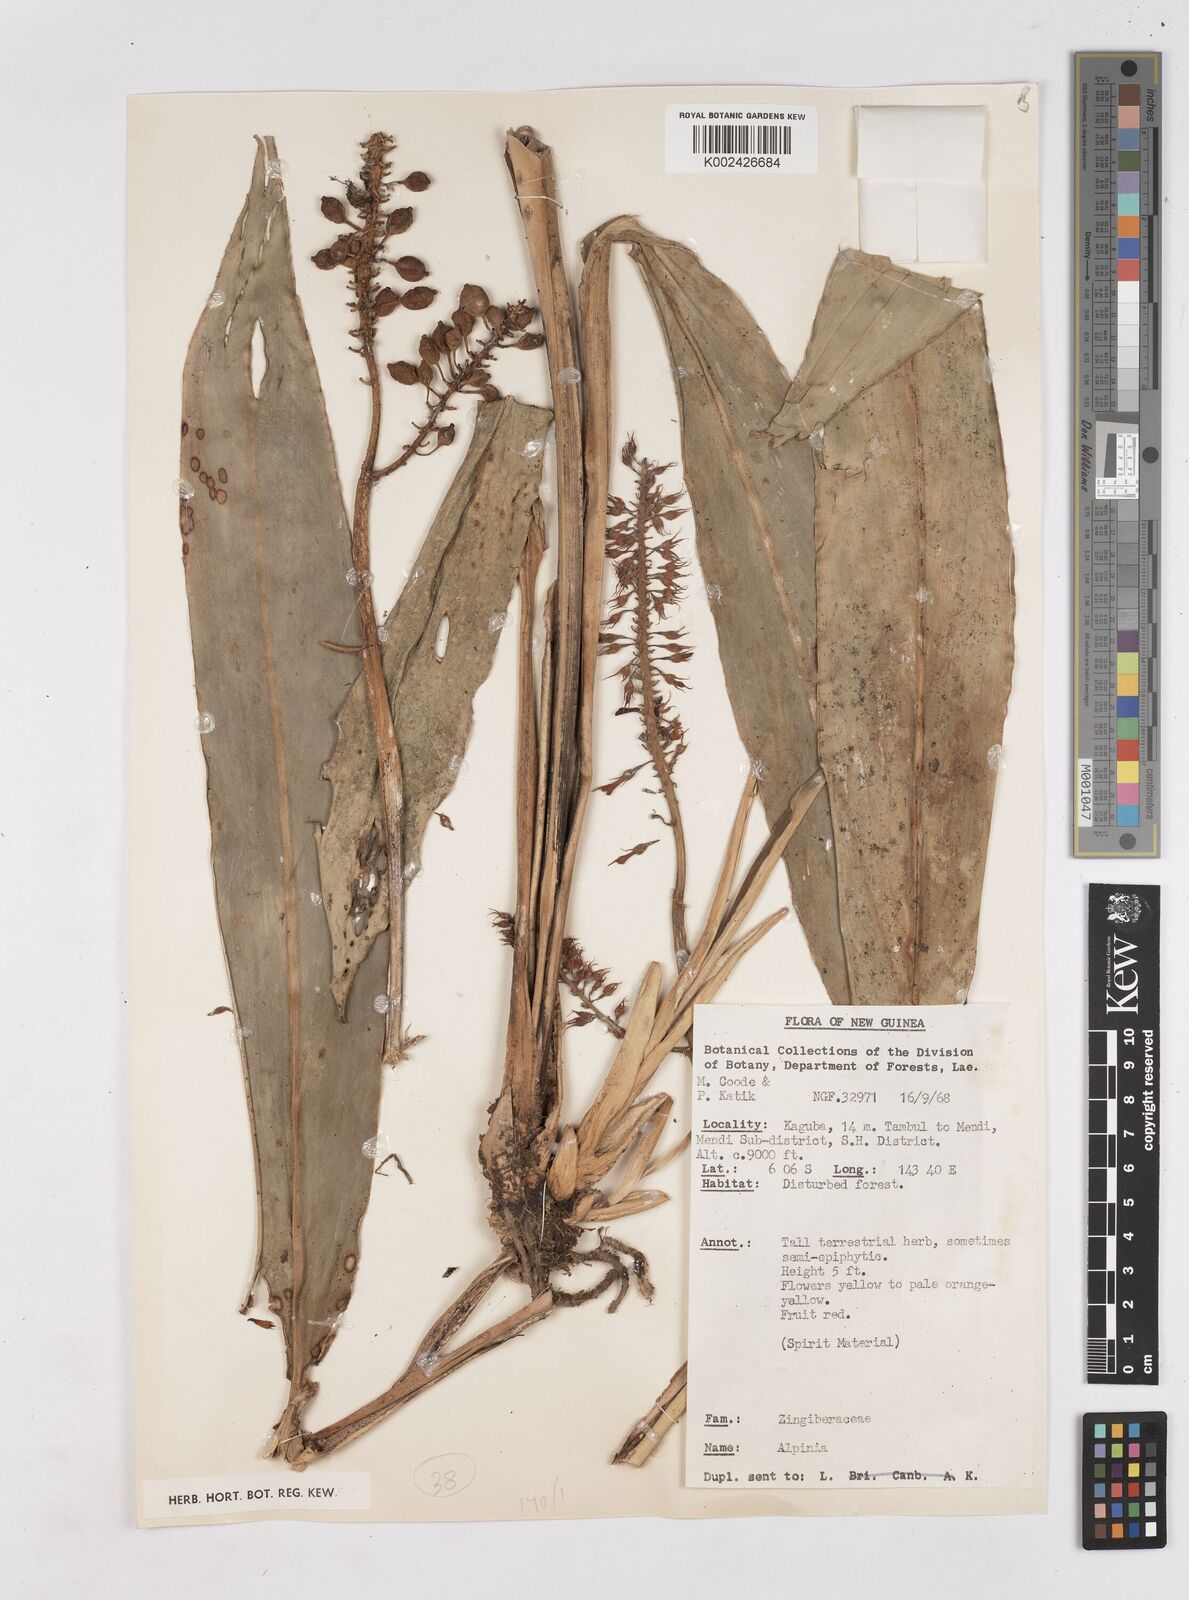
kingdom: Plantae
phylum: Tracheophyta
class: Liliopsida
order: Zingiberales
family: Zingiberaceae
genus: Riedelia
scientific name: Riedelia
